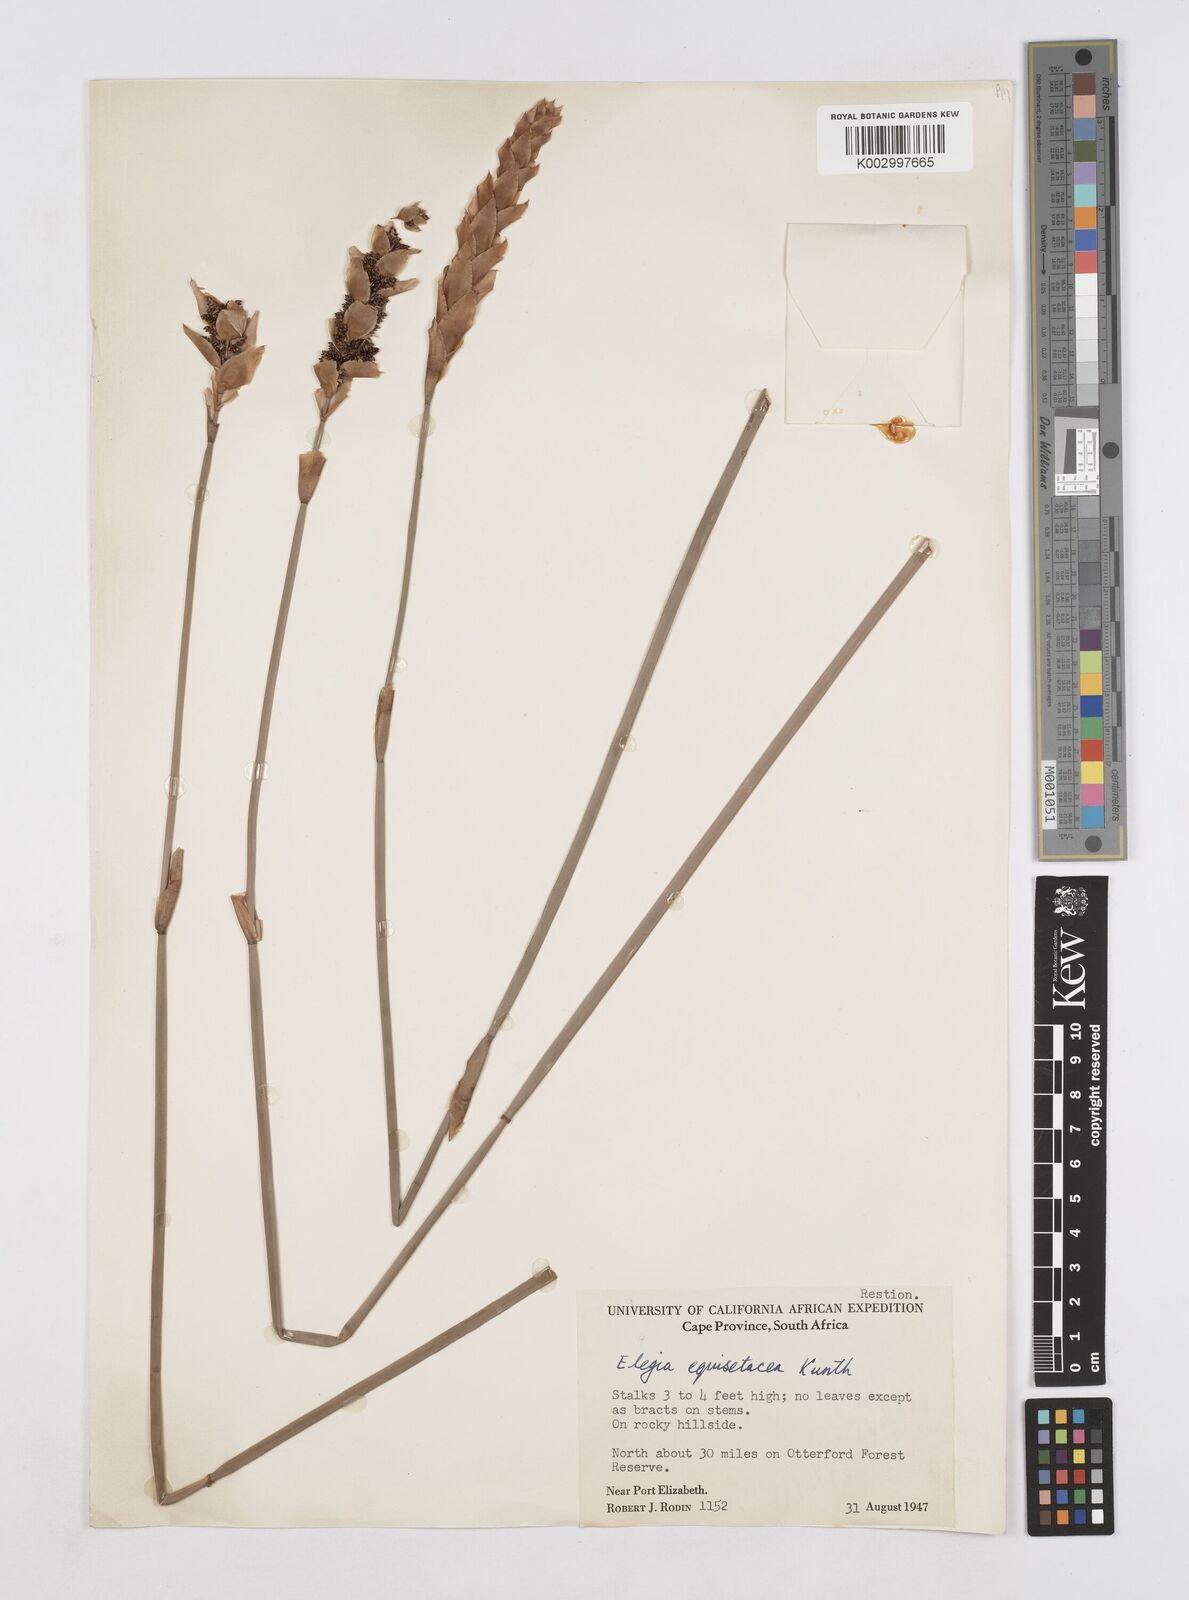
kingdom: Plantae
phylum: Tracheophyta
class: Liliopsida
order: Poales
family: Restionaceae
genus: Elegia
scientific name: Elegia fistulosa
